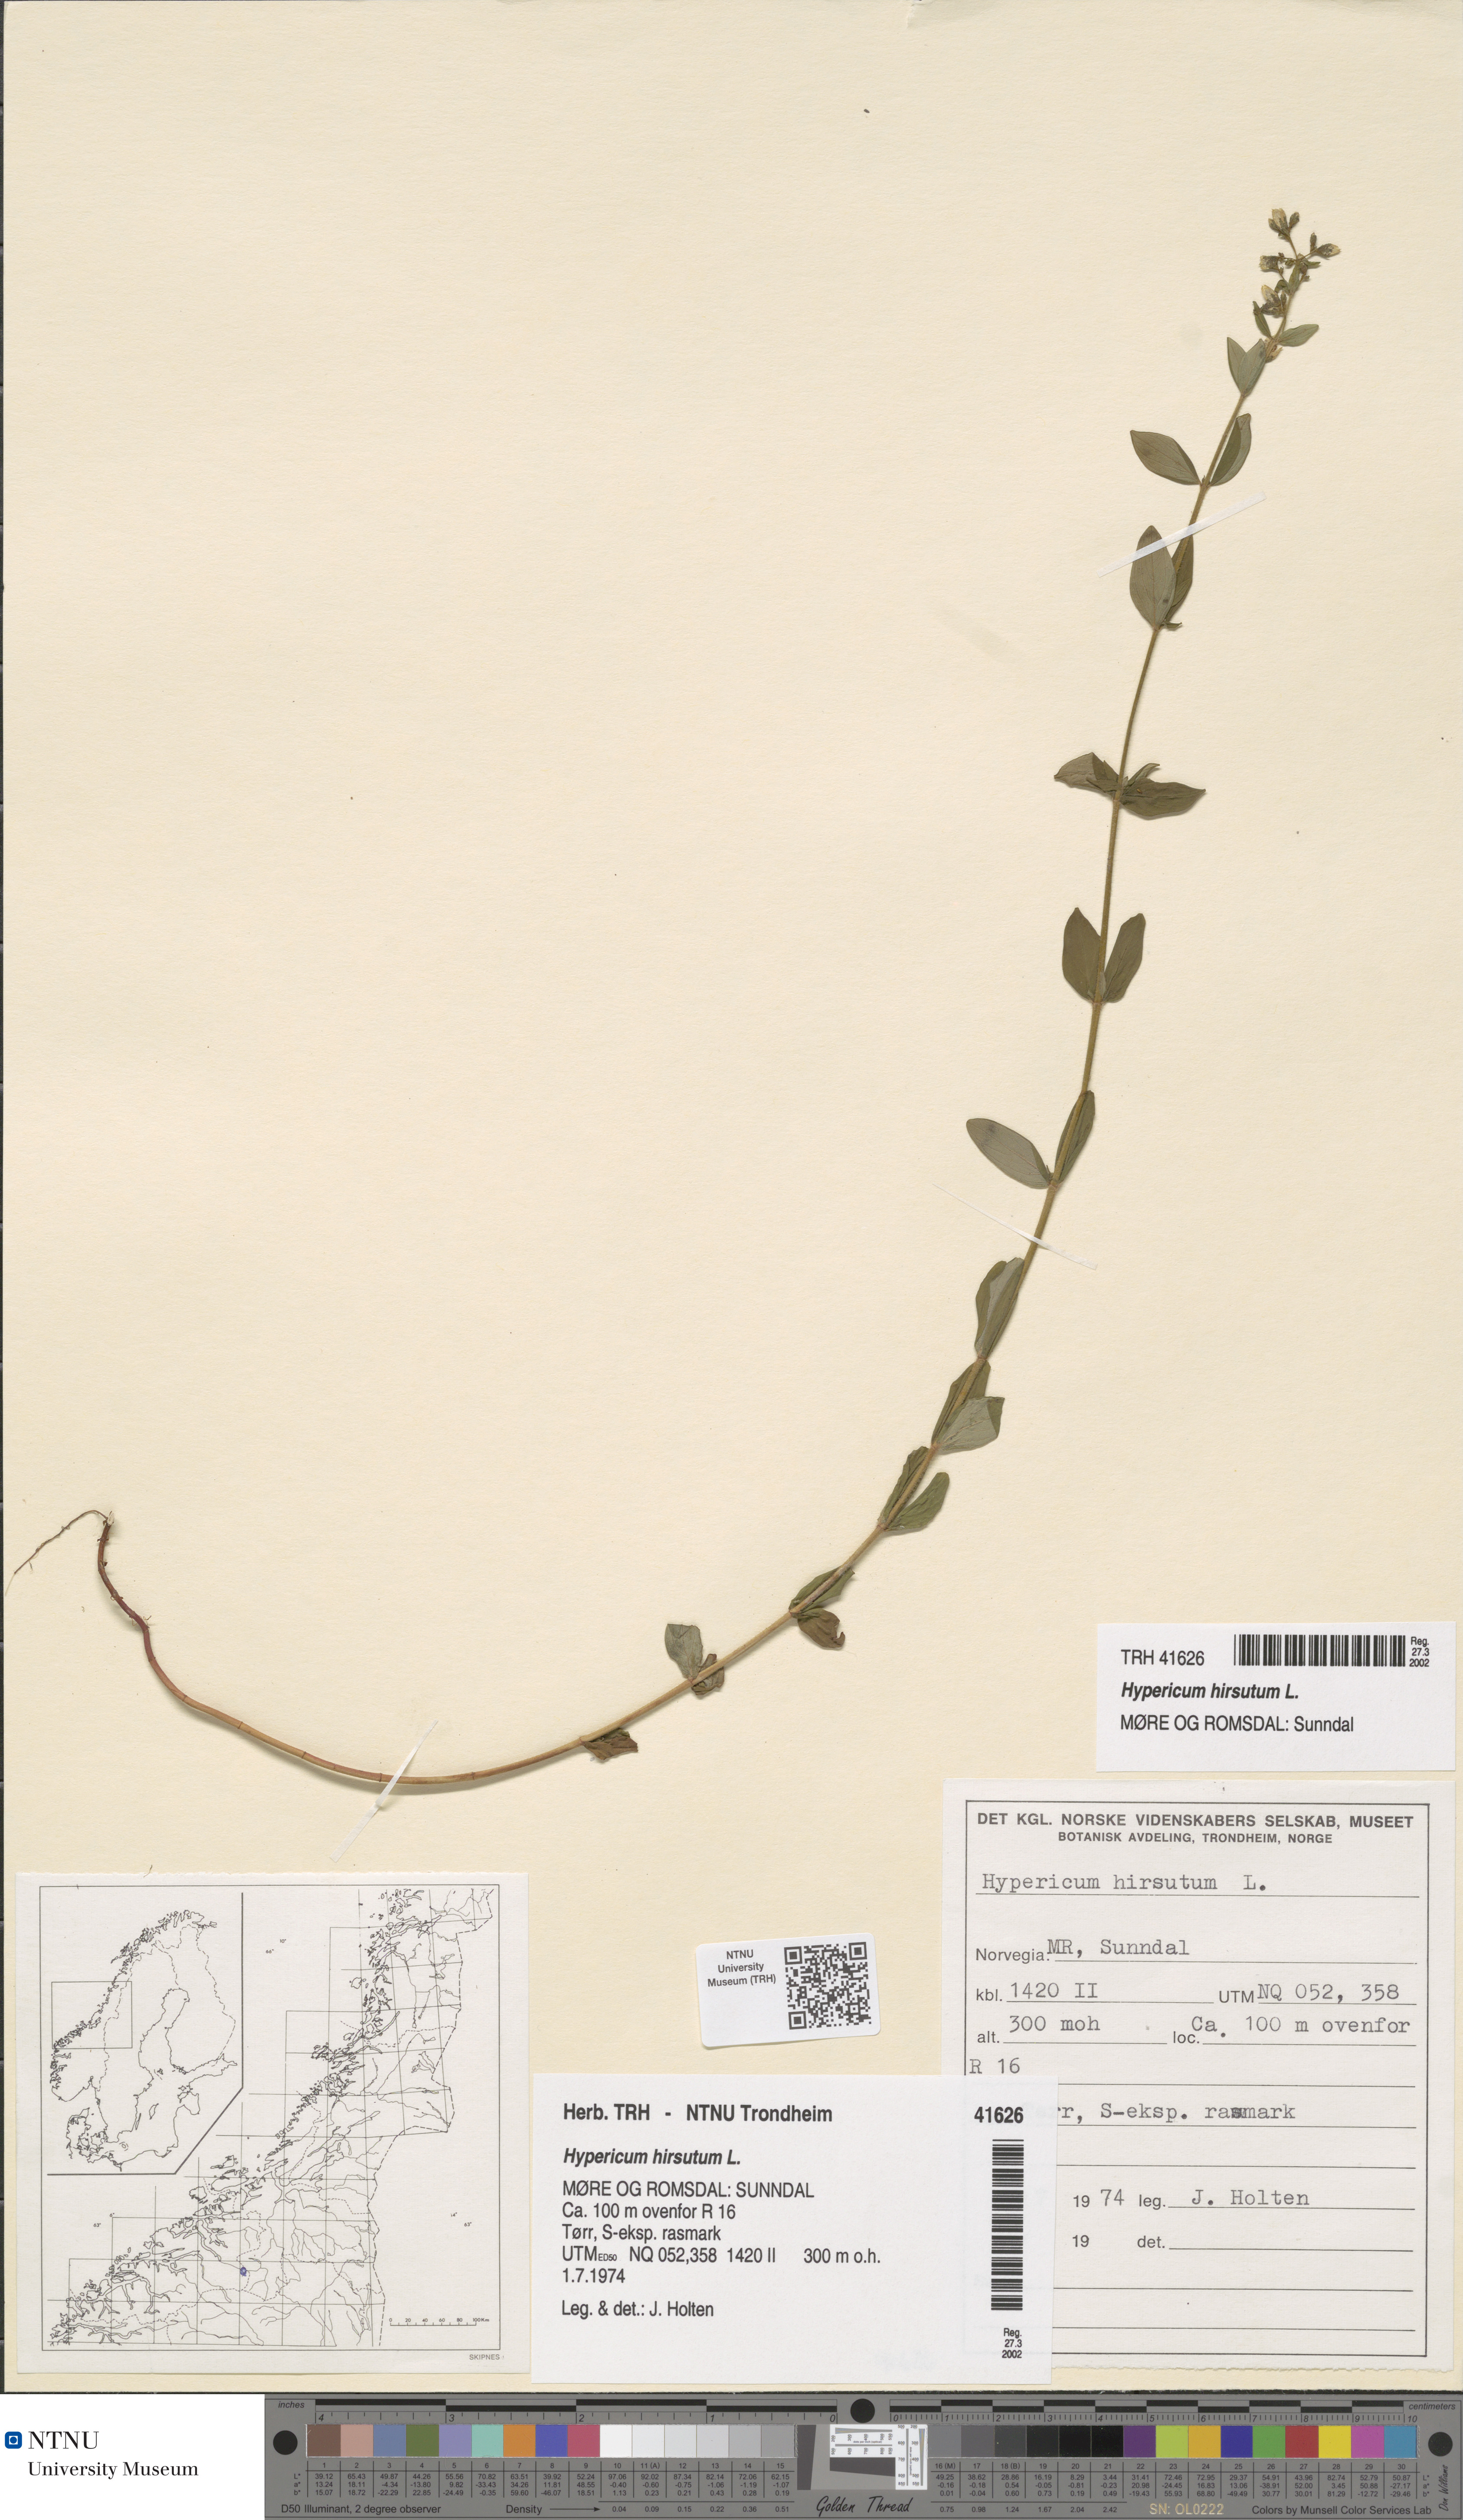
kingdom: Plantae
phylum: Tracheophyta
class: Magnoliopsida
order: Malpighiales
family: Hypericaceae
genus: Hypericum
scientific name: Hypericum hirsutum
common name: Hairy st. john's-wort
